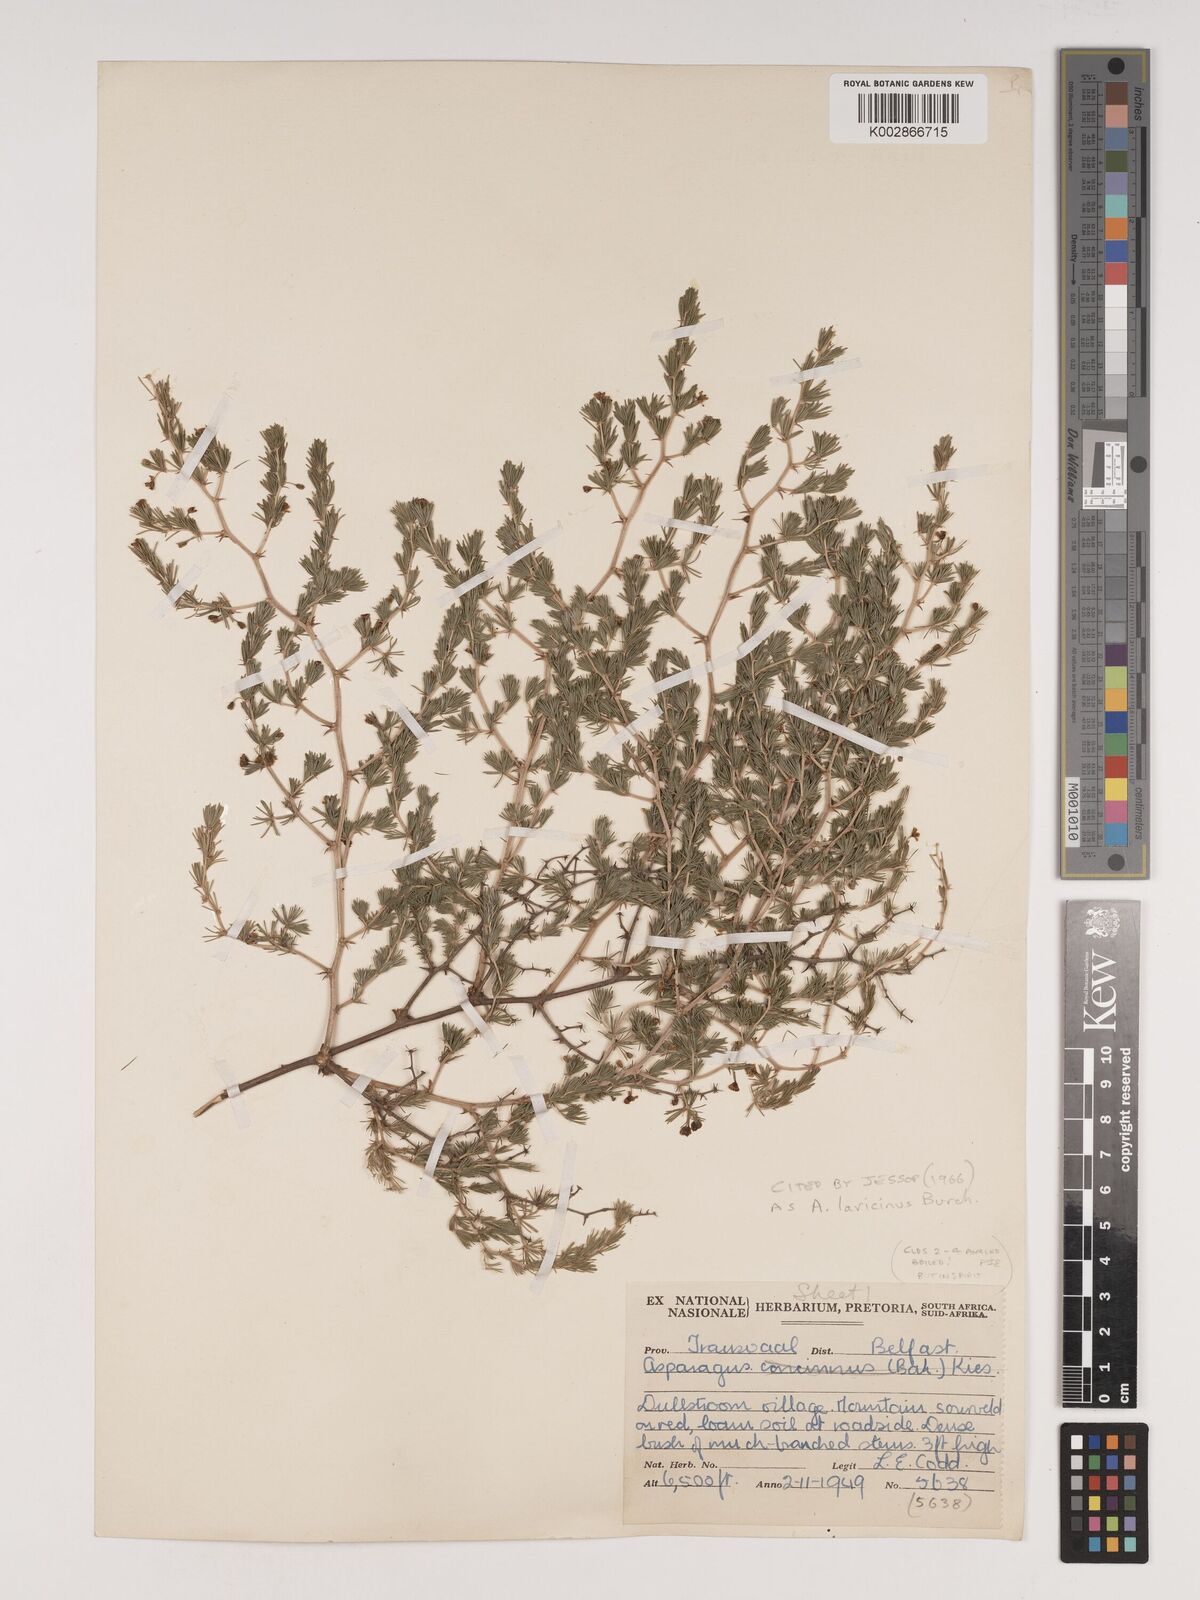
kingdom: Plantae
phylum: Tracheophyta
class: Liliopsida
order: Asparagales
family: Asparagaceae
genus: Asparagus
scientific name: Asparagus laricinus
